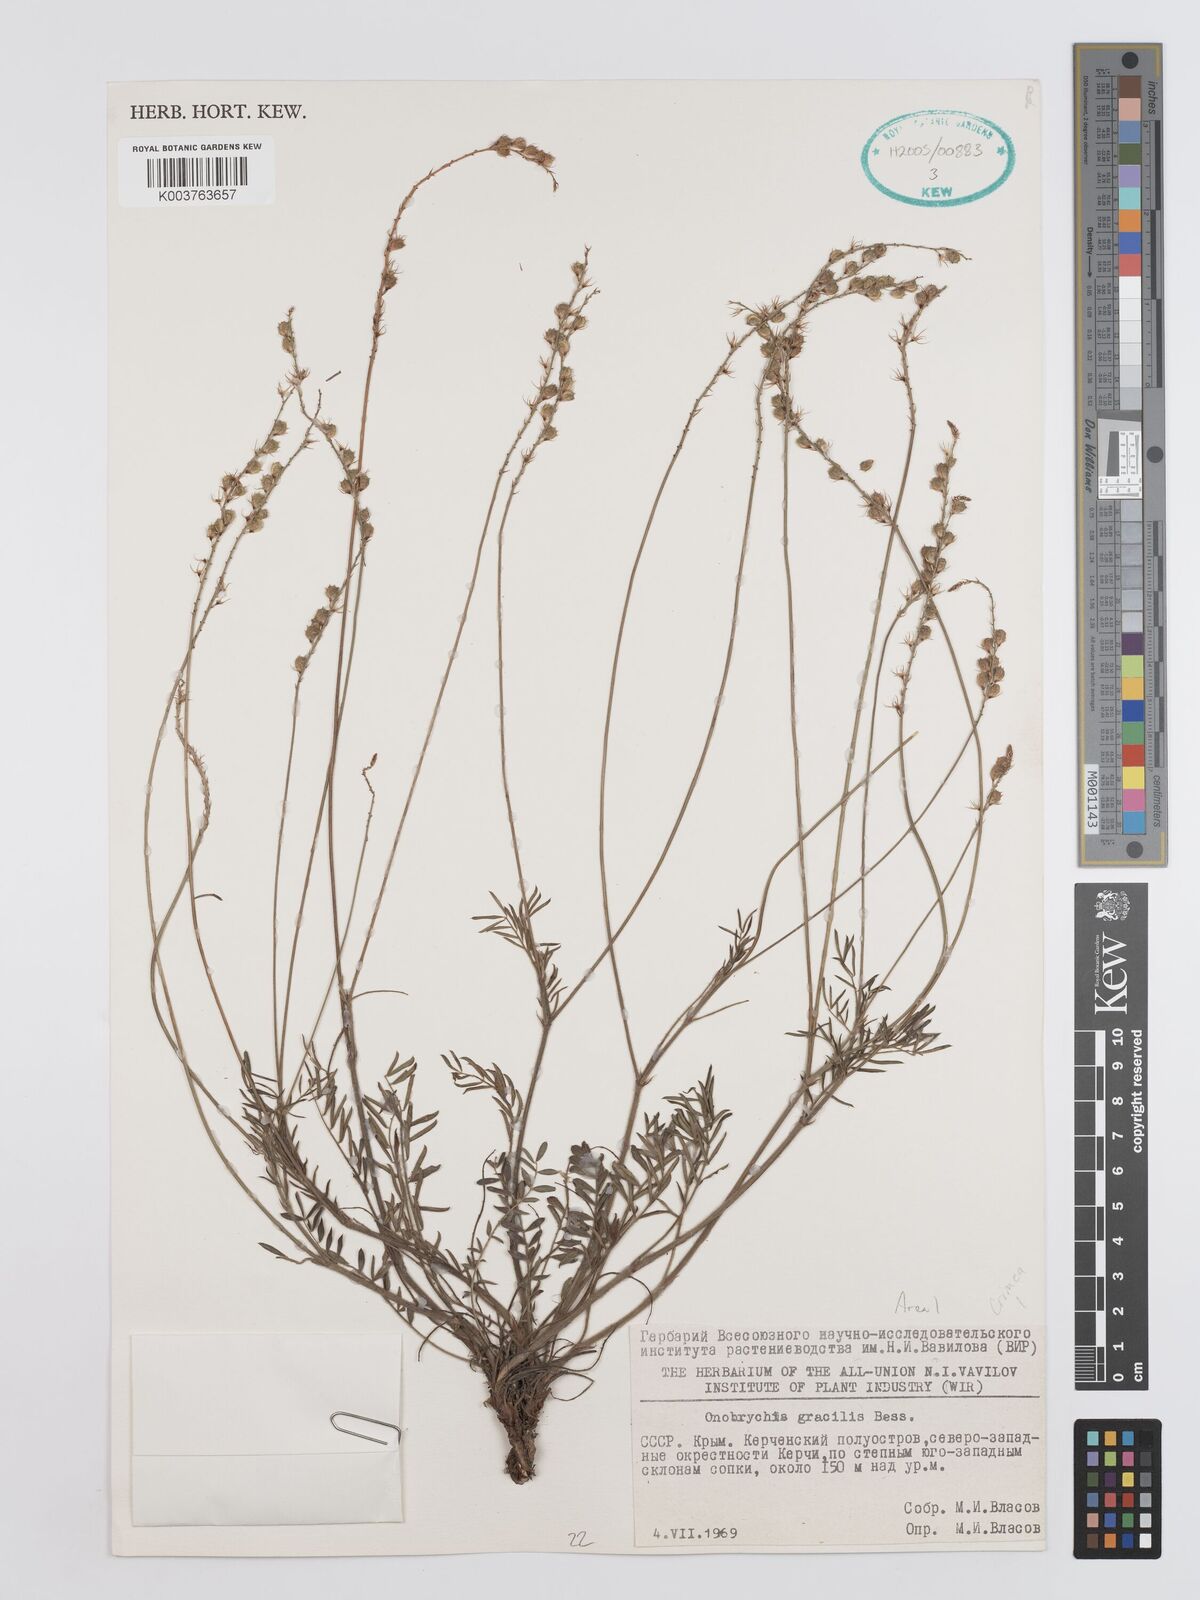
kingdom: Plantae
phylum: Tracheophyta
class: Magnoliopsida
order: Fabales
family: Fabaceae
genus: Onobrychis
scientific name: Onobrychis gracilis
